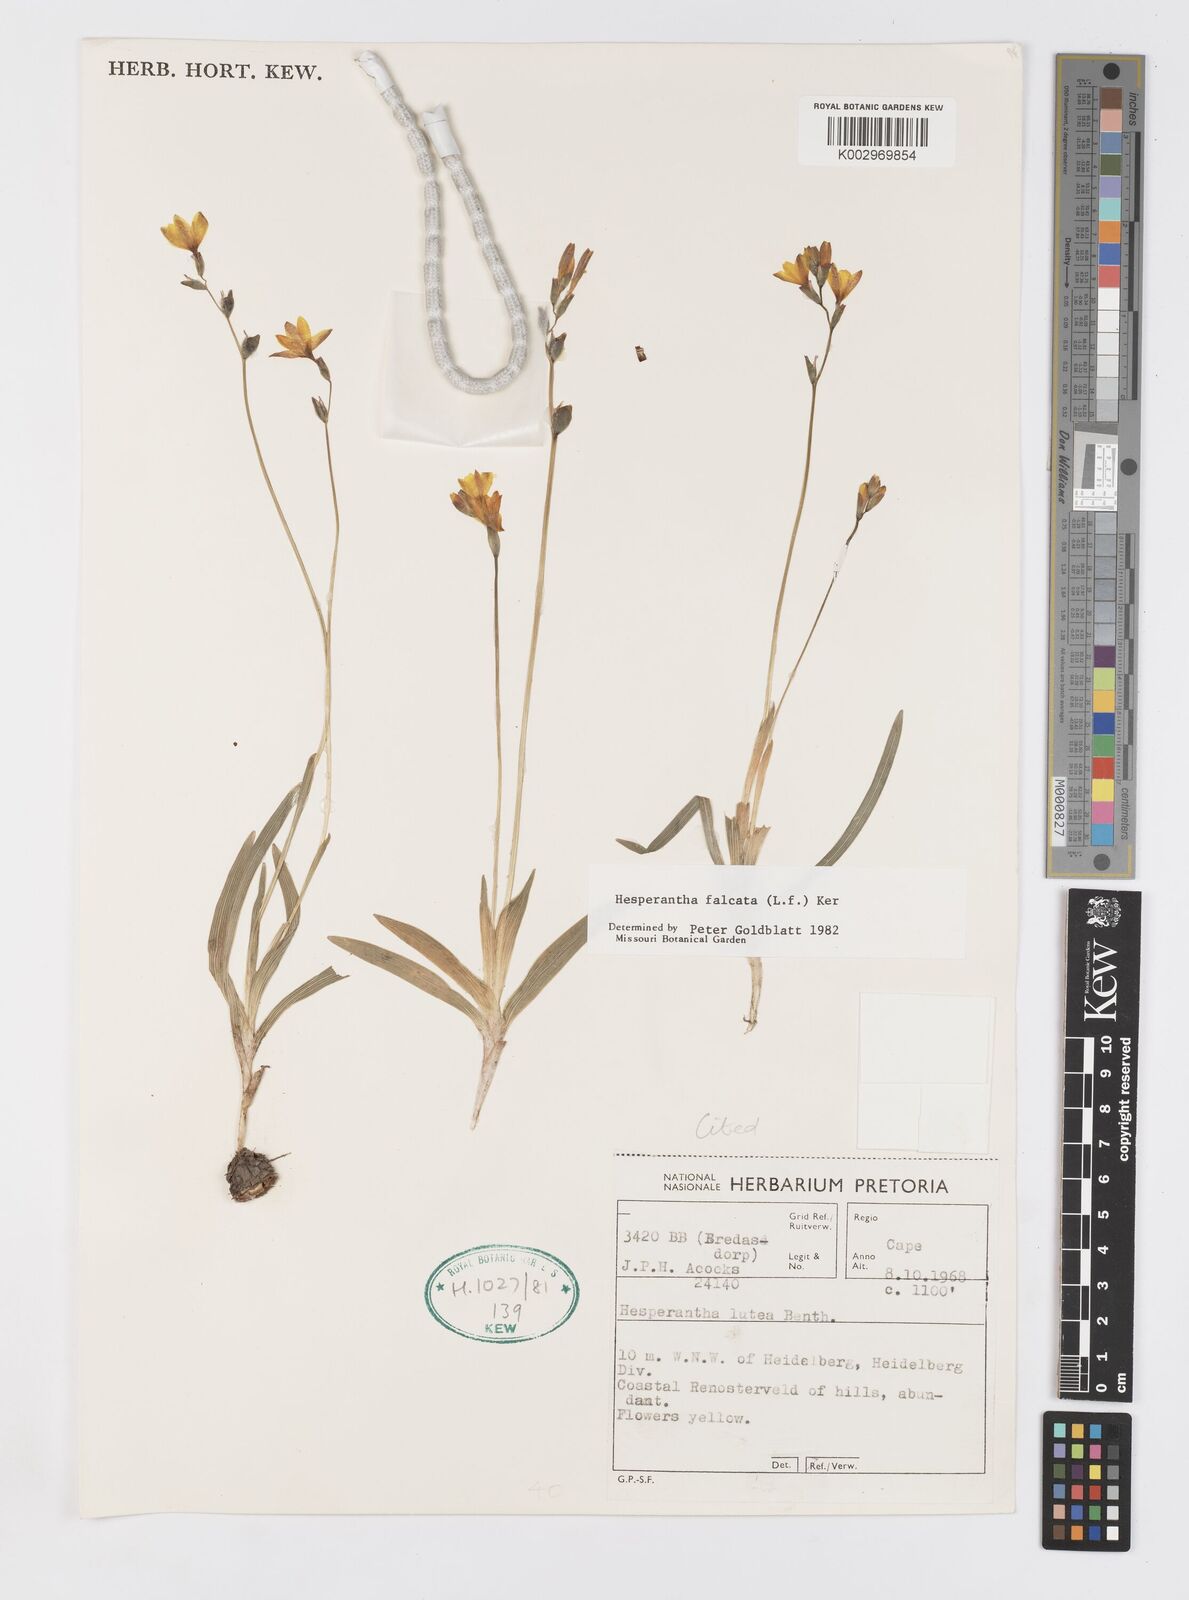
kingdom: Plantae
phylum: Tracheophyta
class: Liliopsida
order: Asparagales
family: Iridaceae
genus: Hesperantha
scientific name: Hesperantha falcata
